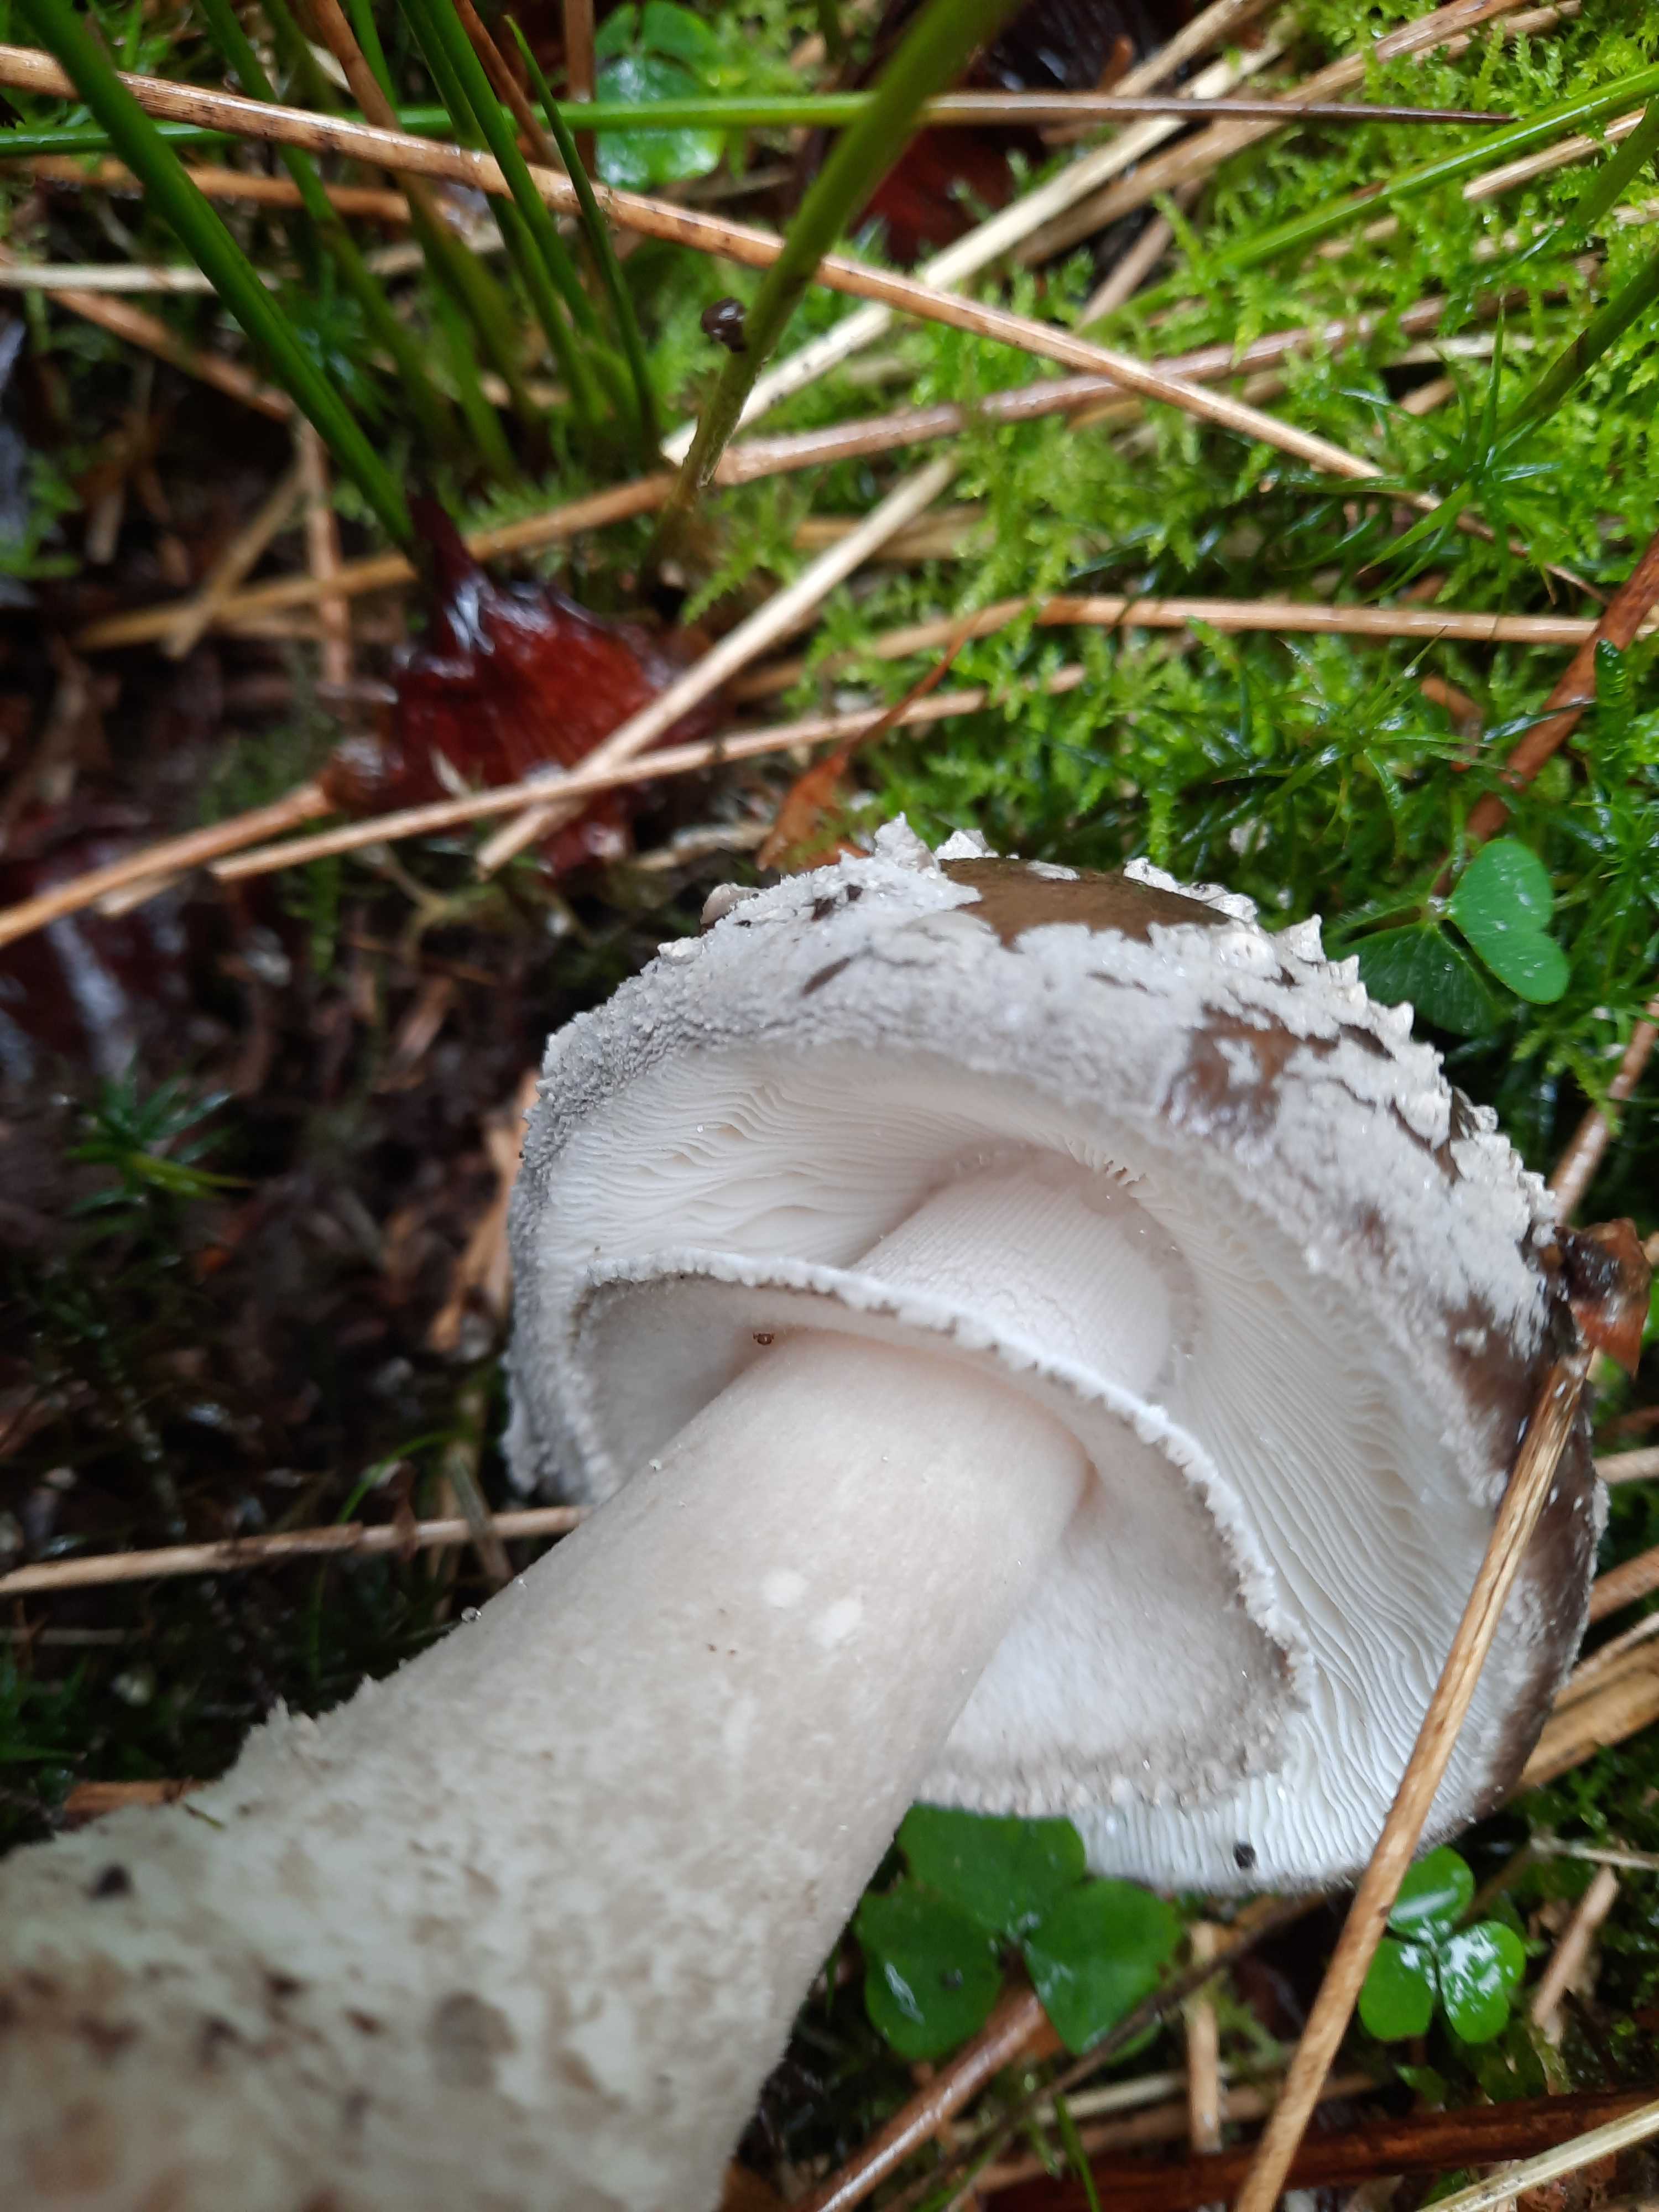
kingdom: Fungi
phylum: Basidiomycota
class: Agaricomycetes
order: Agaricales
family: Amanitaceae
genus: Amanita
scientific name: Amanita
